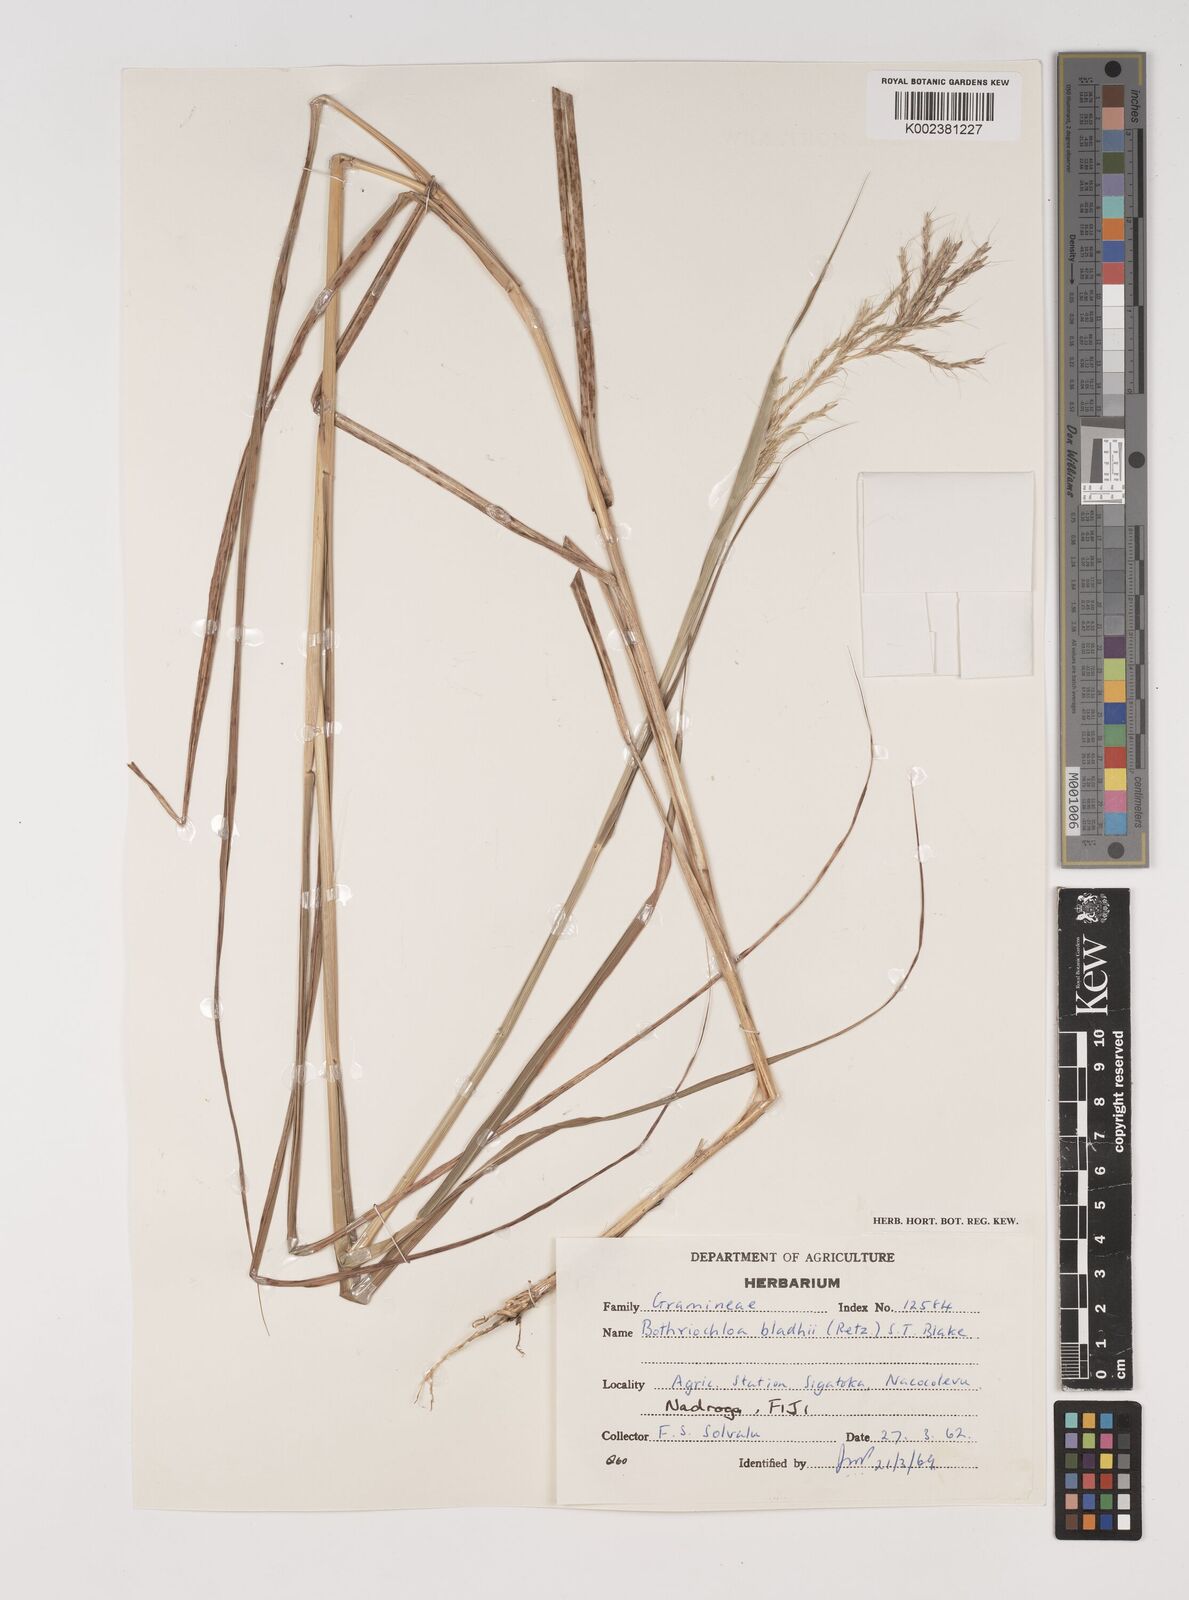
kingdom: Plantae
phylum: Tracheophyta
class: Liliopsida
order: Poales
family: Poaceae
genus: Bothriochloa
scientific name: Bothriochloa bladhii
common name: Caucasian bluestem
